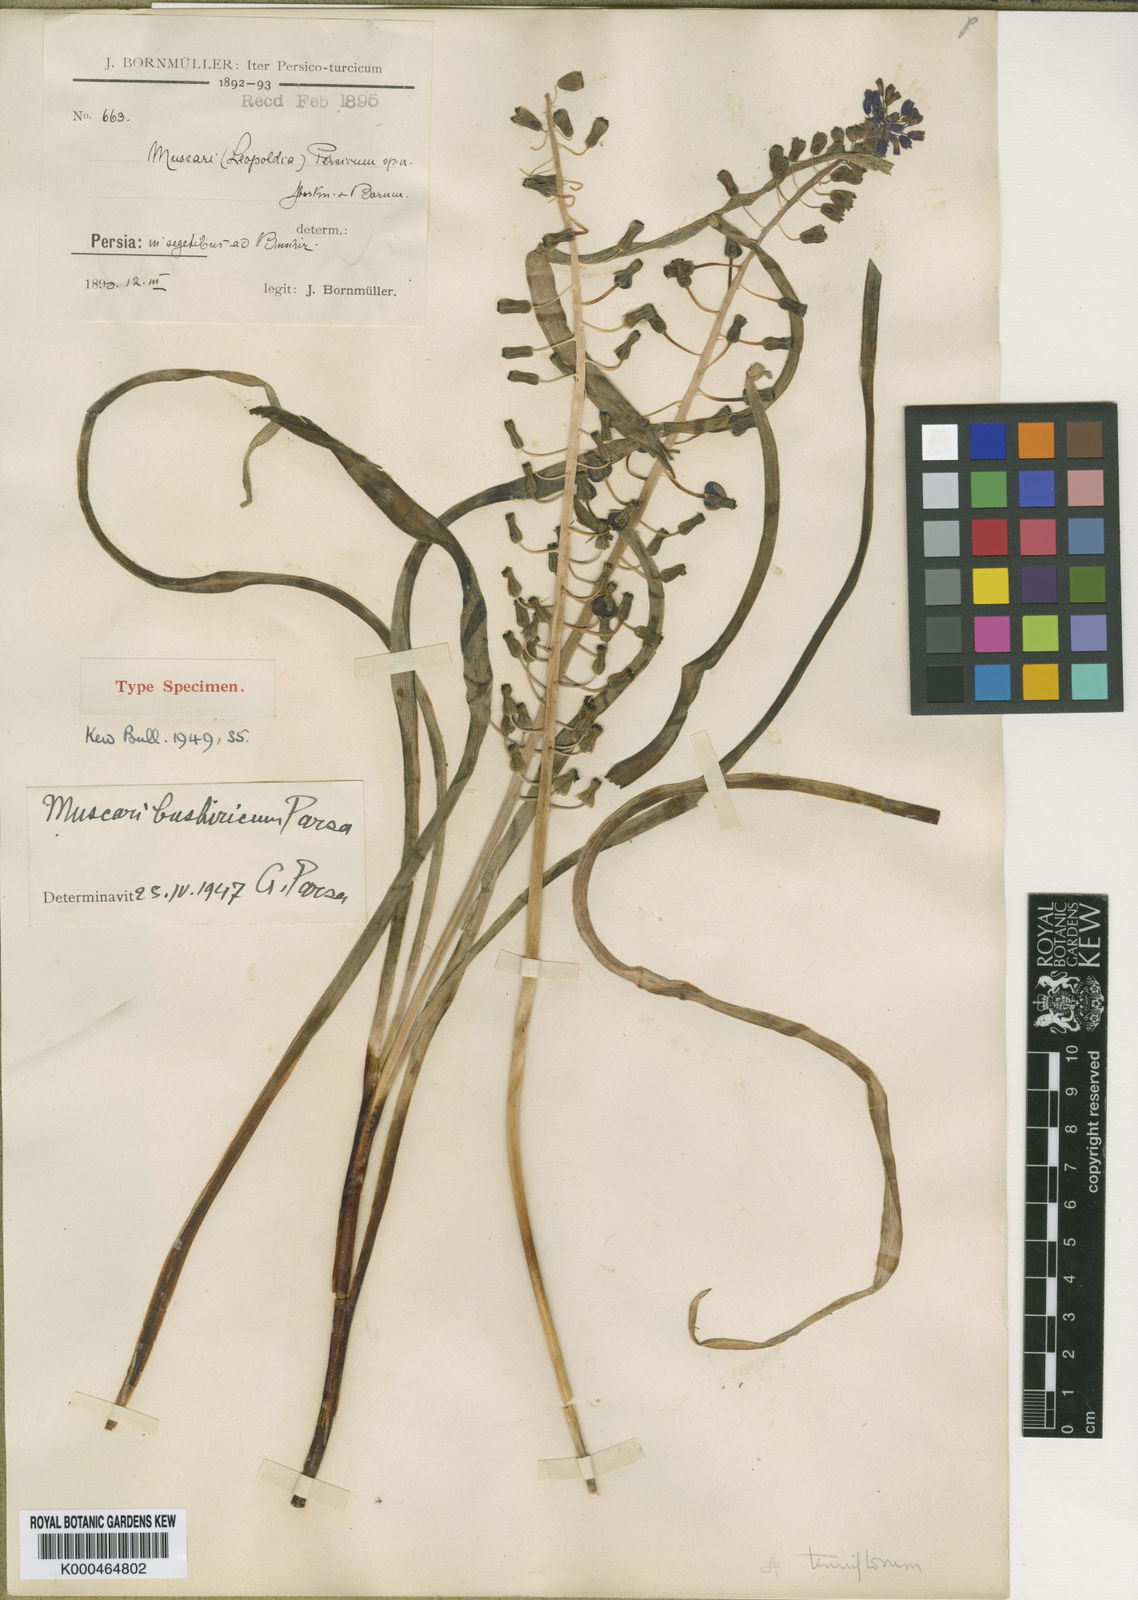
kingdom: Animalia
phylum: Mollusca
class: Cephalopoda
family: Neocomitidae
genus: Leopoldia
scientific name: Leopoldia
